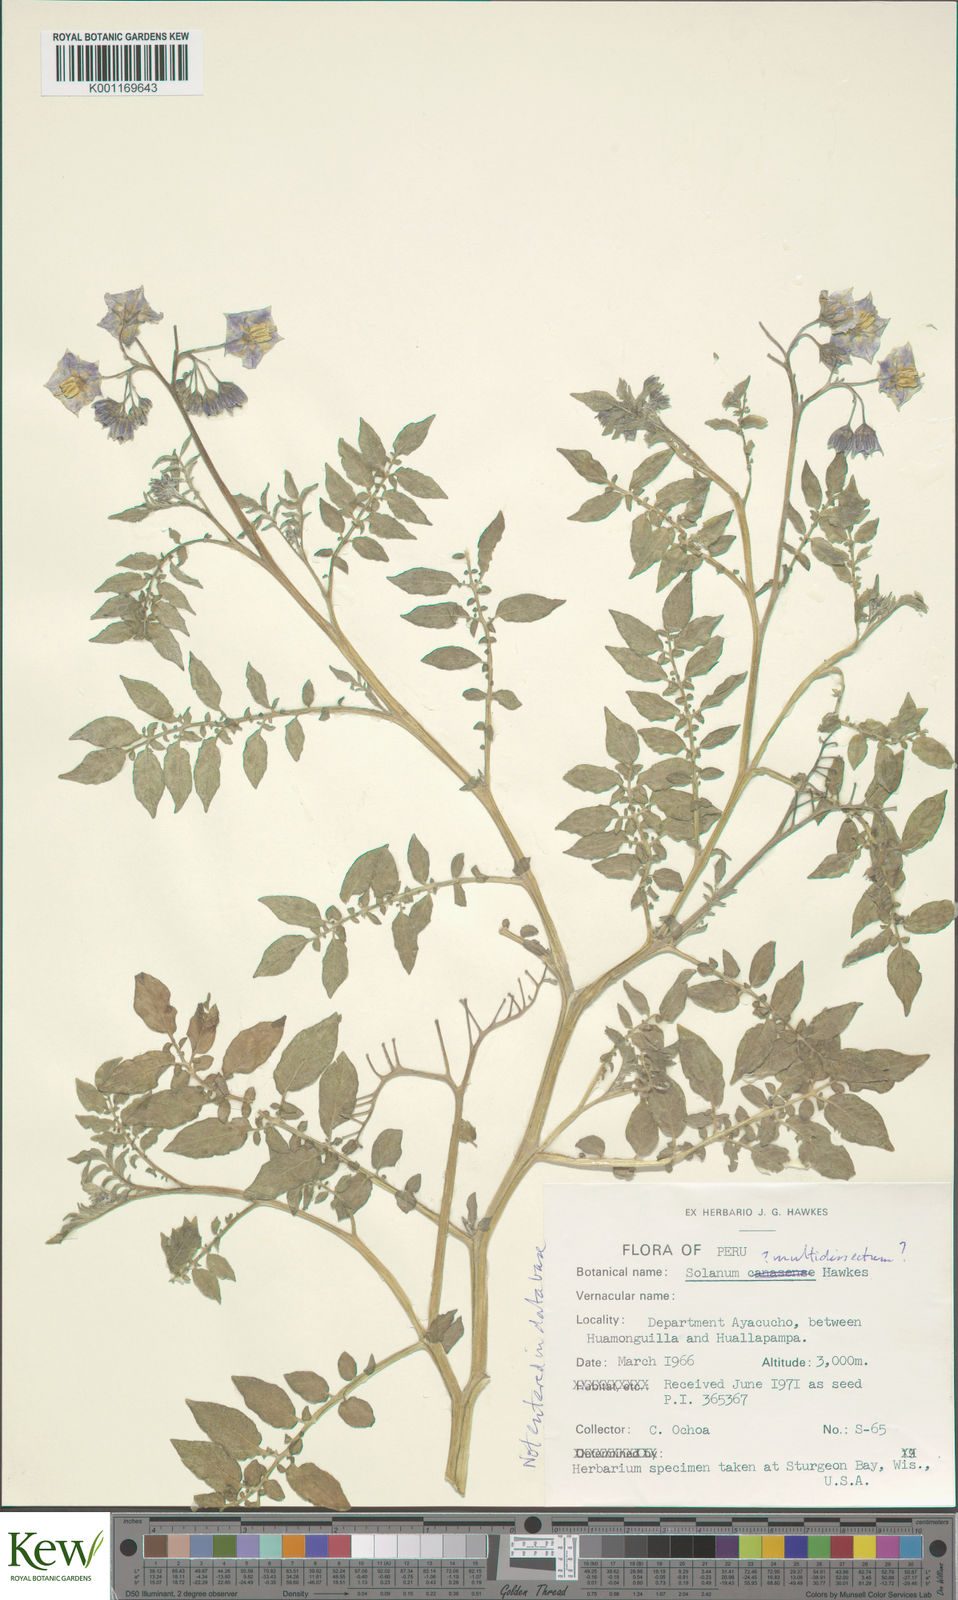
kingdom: Plantae
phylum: Tracheophyta
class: Magnoliopsida
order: Solanales
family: Solanaceae
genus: Solanum
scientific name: Solanum candolleanum
